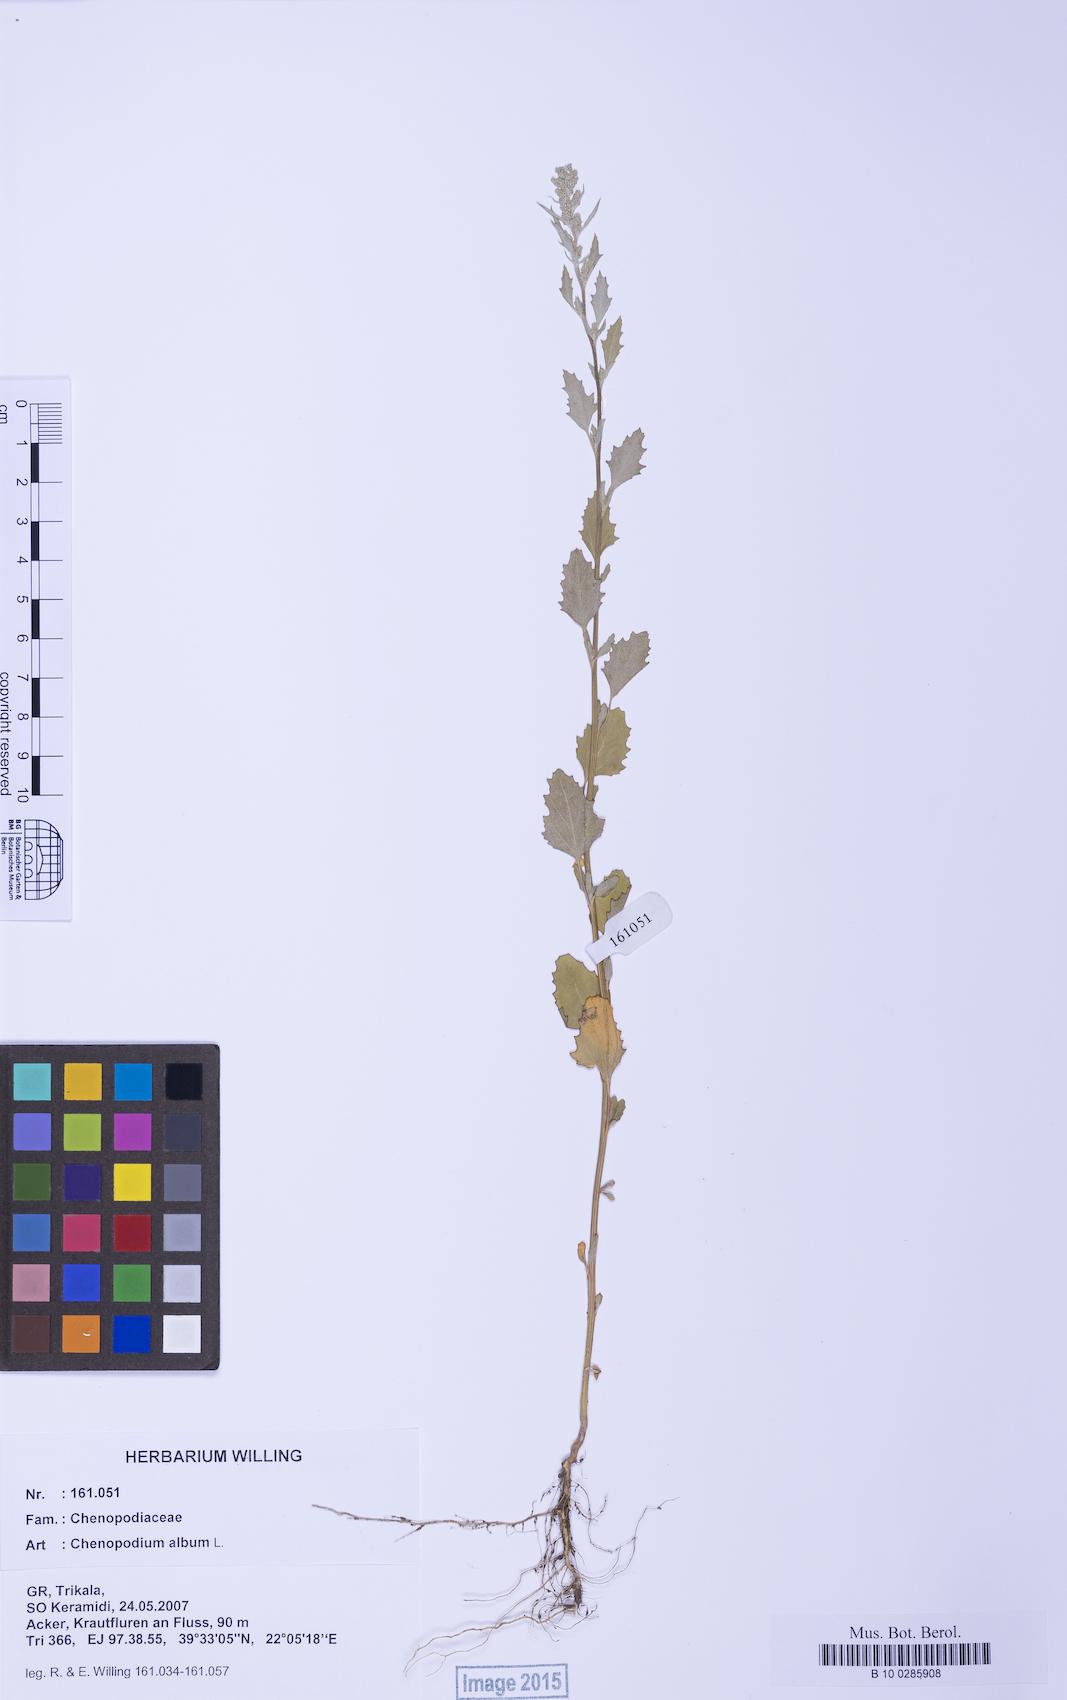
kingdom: Plantae
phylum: Tracheophyta
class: Magnoliopsida
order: Caryophyllales
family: Amaranthaceae
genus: Chenopodium
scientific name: Chenopodium betaceum
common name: Striped goosefoot
